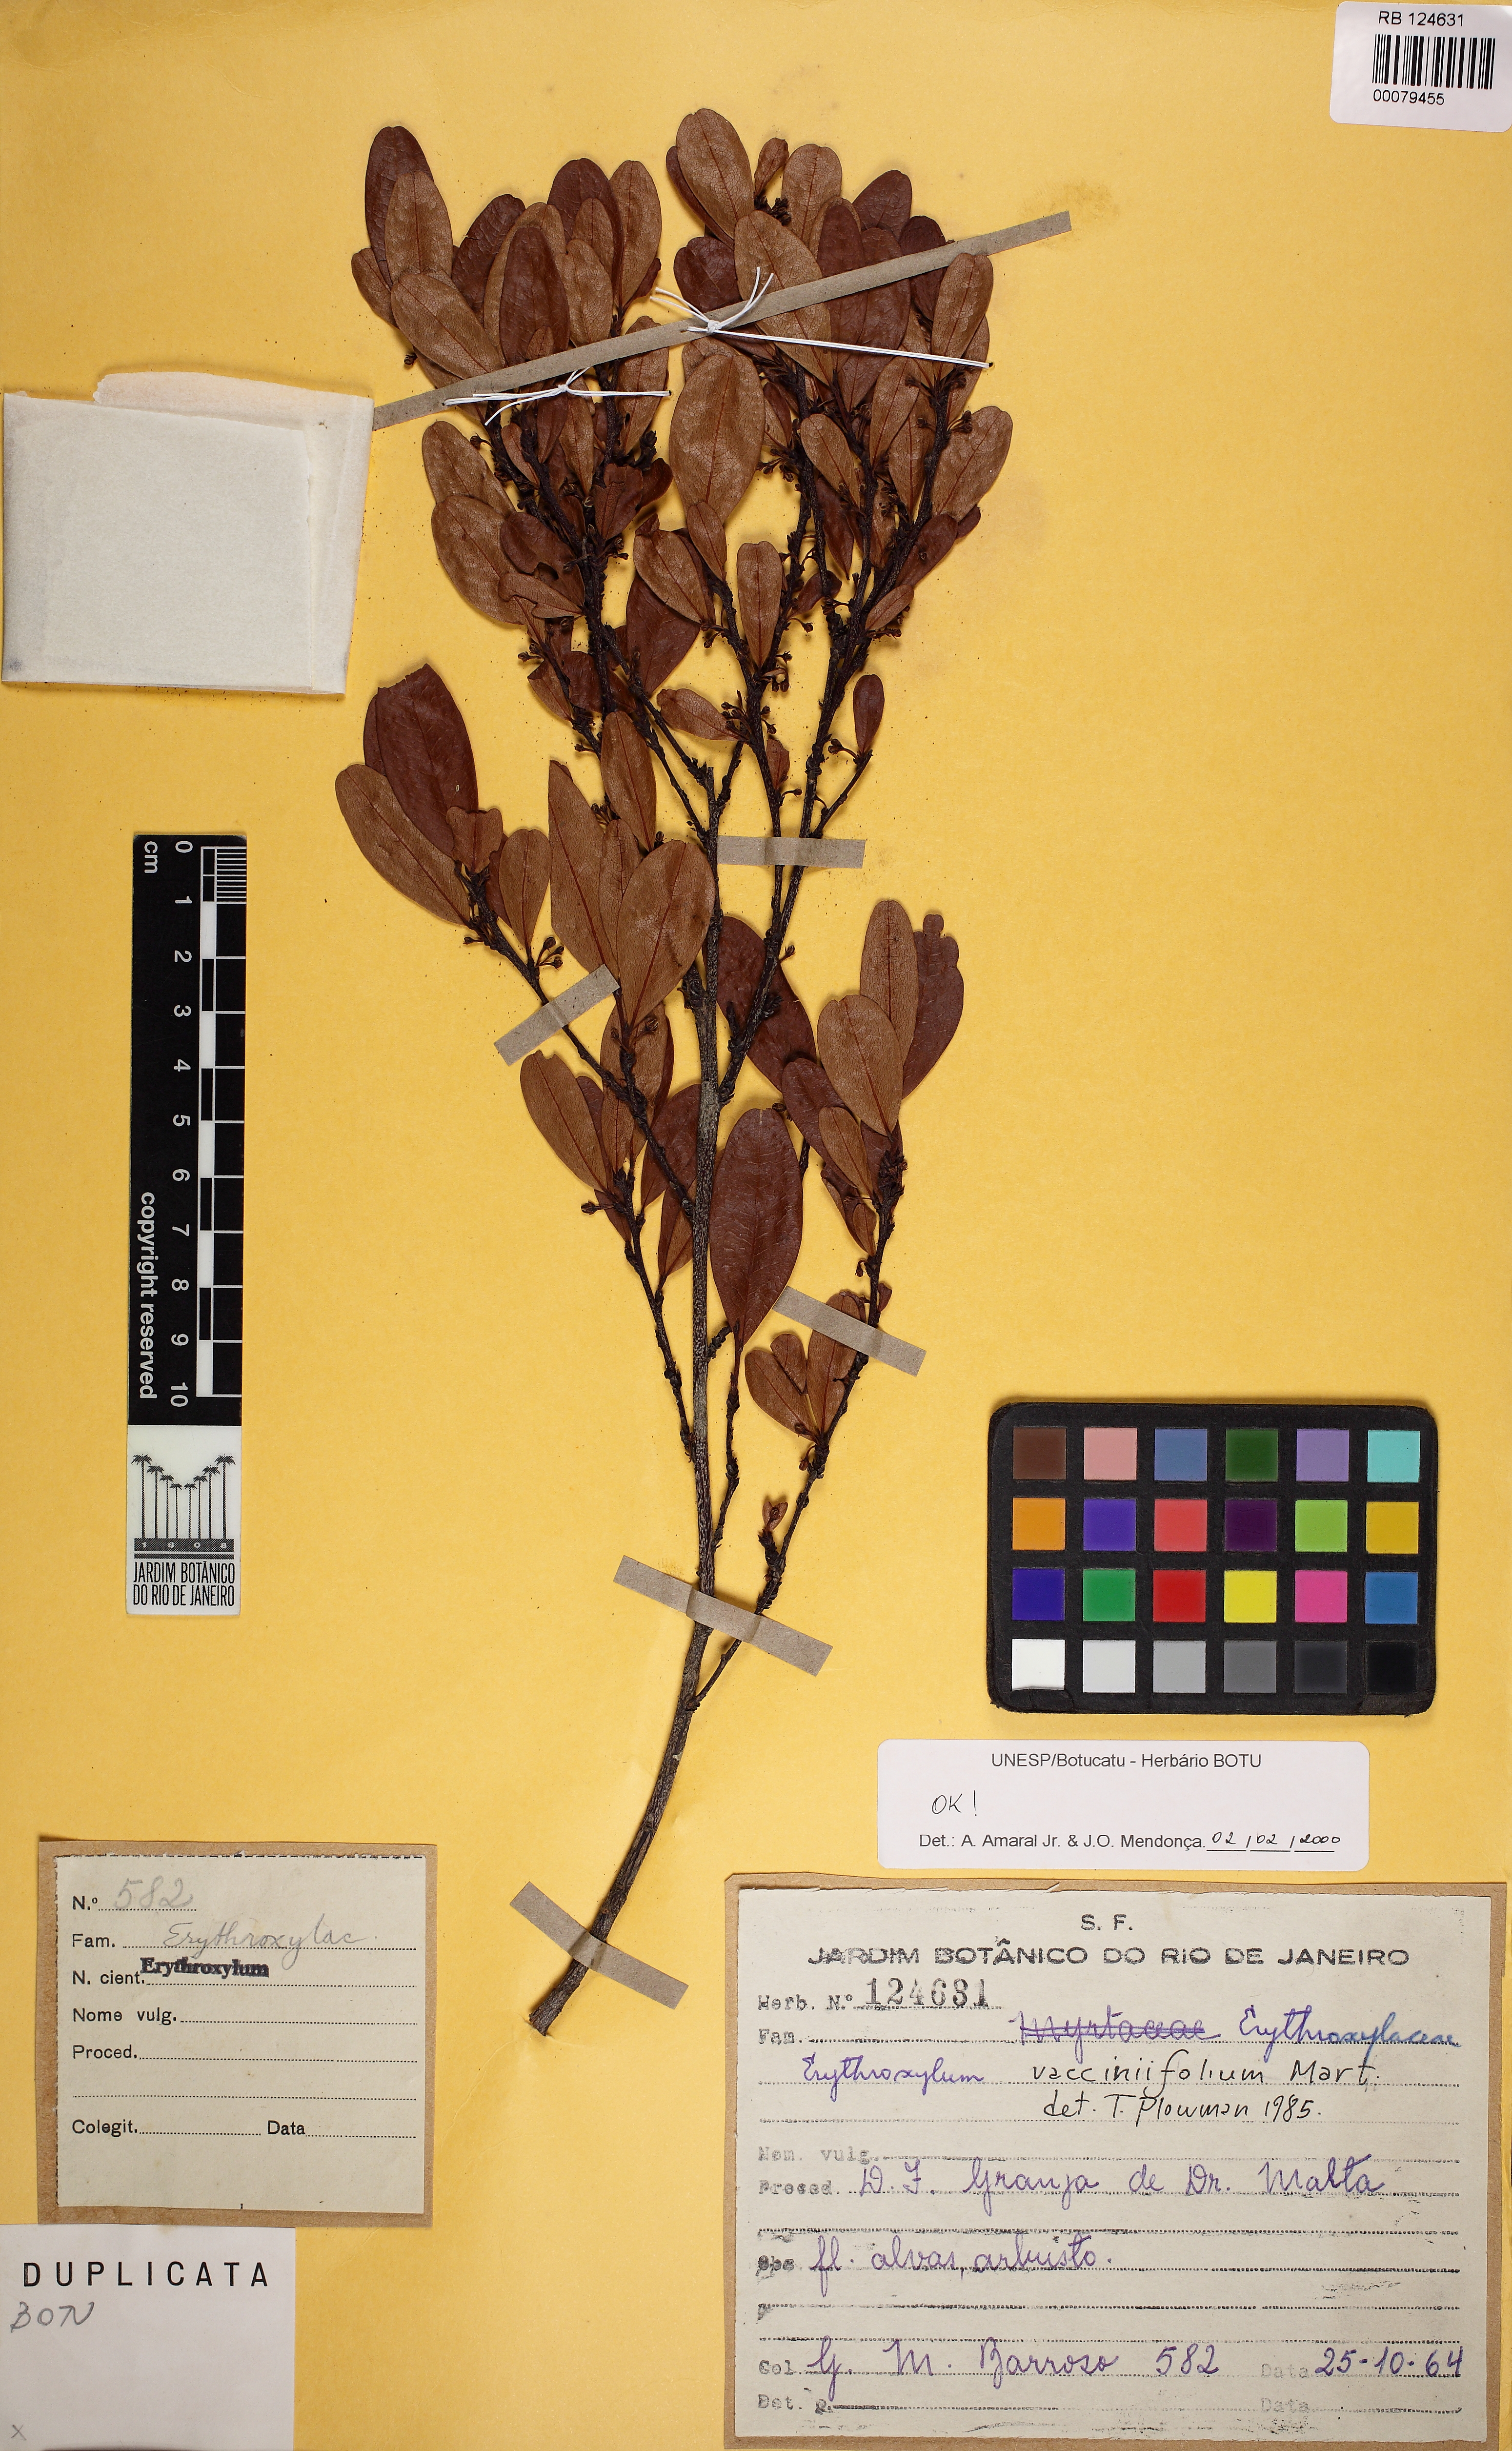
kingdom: Plantae
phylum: Tracheophyta
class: Magnoliopsida
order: Malpighiales
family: Erythroxylaceae
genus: Erythroxylum
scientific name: Erythroxylum vaccinifolium
